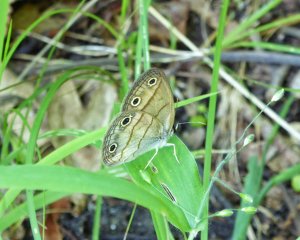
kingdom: Animalia
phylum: Arthropoda
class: Insecta
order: Lepidoptera
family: Nymphalidae
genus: Euptychia
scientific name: Euptychia cymela
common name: Little Wood Satyr
